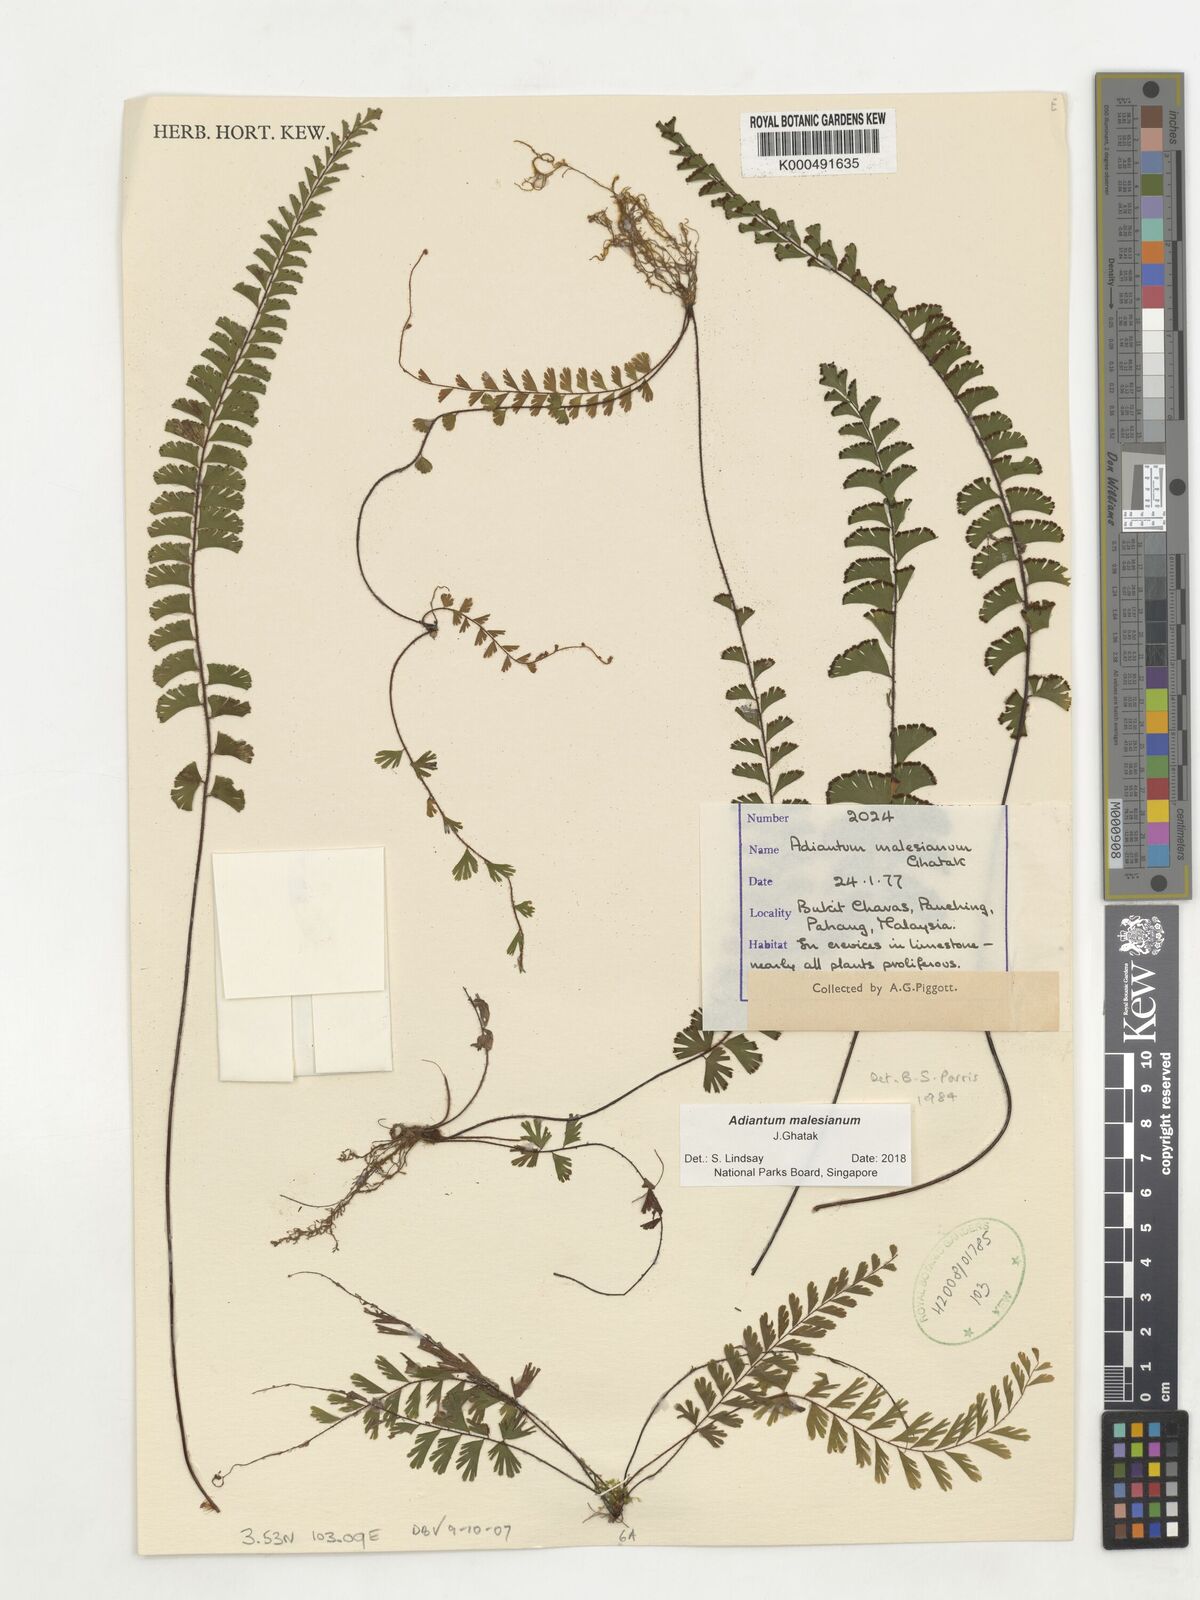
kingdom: Plantae
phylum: Tracheophyta
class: Polypodiopsida
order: Polypodiales
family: Pteridaceae
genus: Adiantum
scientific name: Adiantum ciliatum
